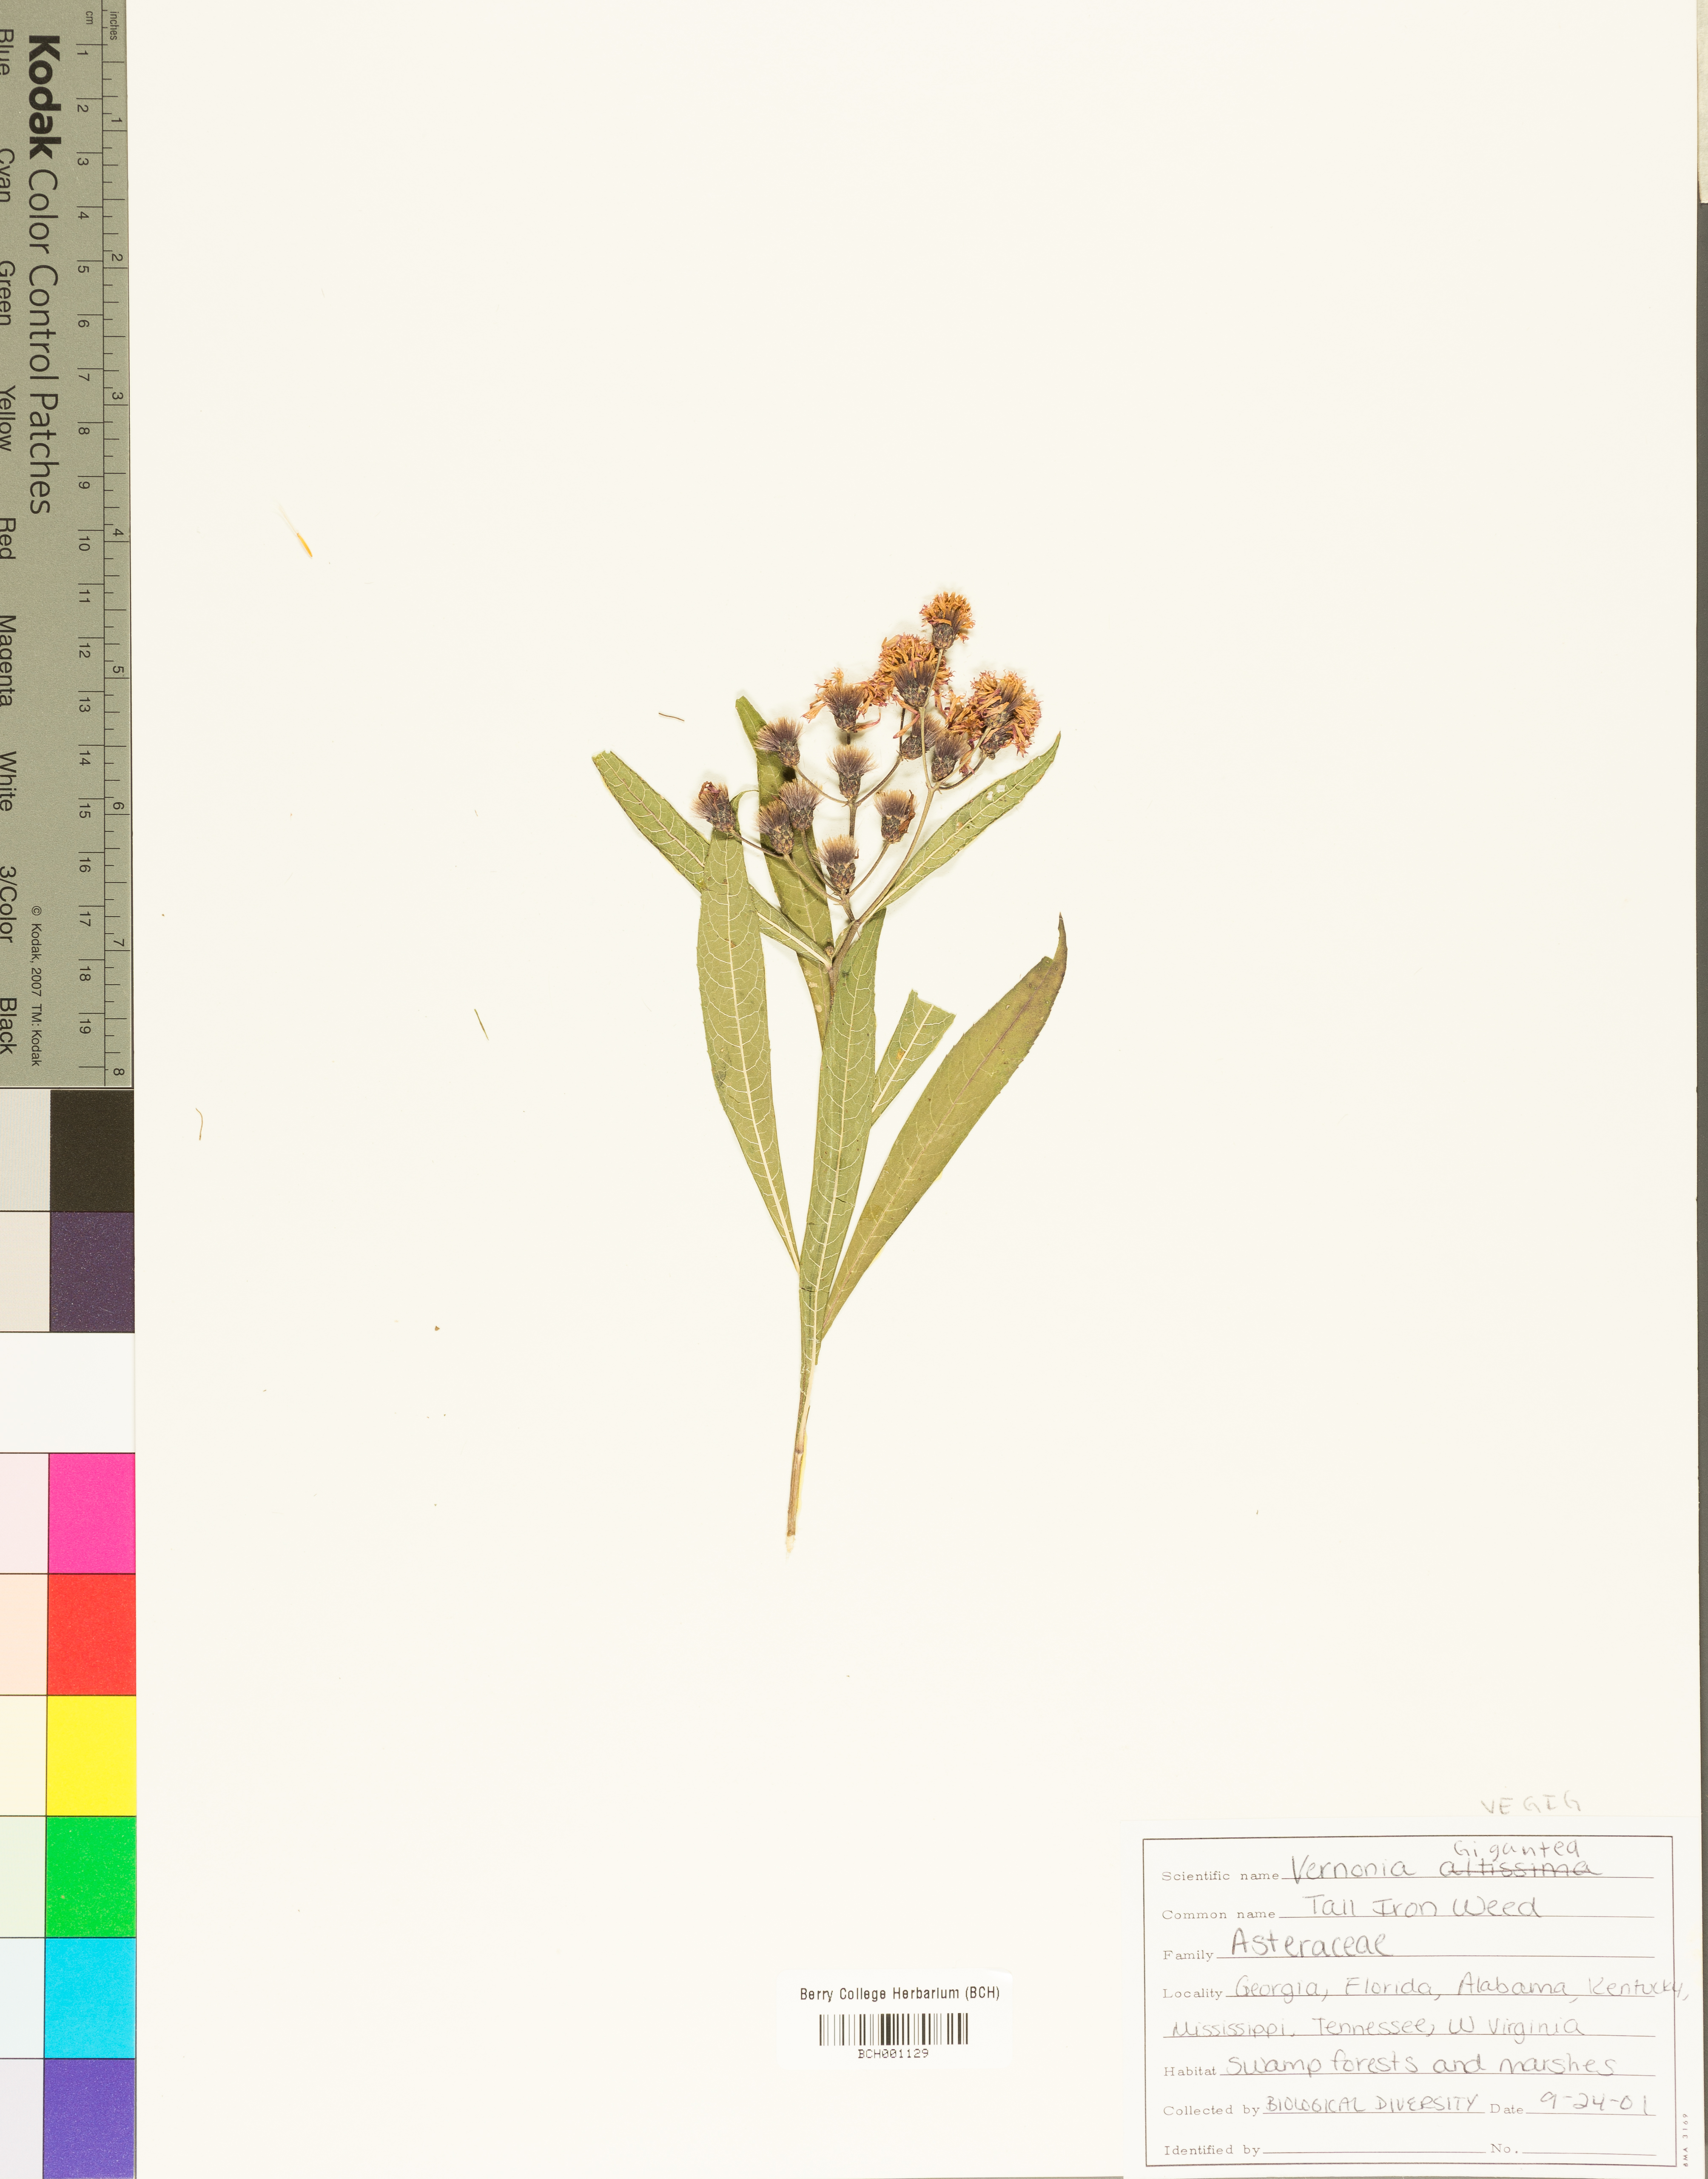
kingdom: Plantae
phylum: Tracheophyta
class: Magnoliopsida
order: Asterales
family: Asteraceae
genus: Vernonia
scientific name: Vernonia gigantea
